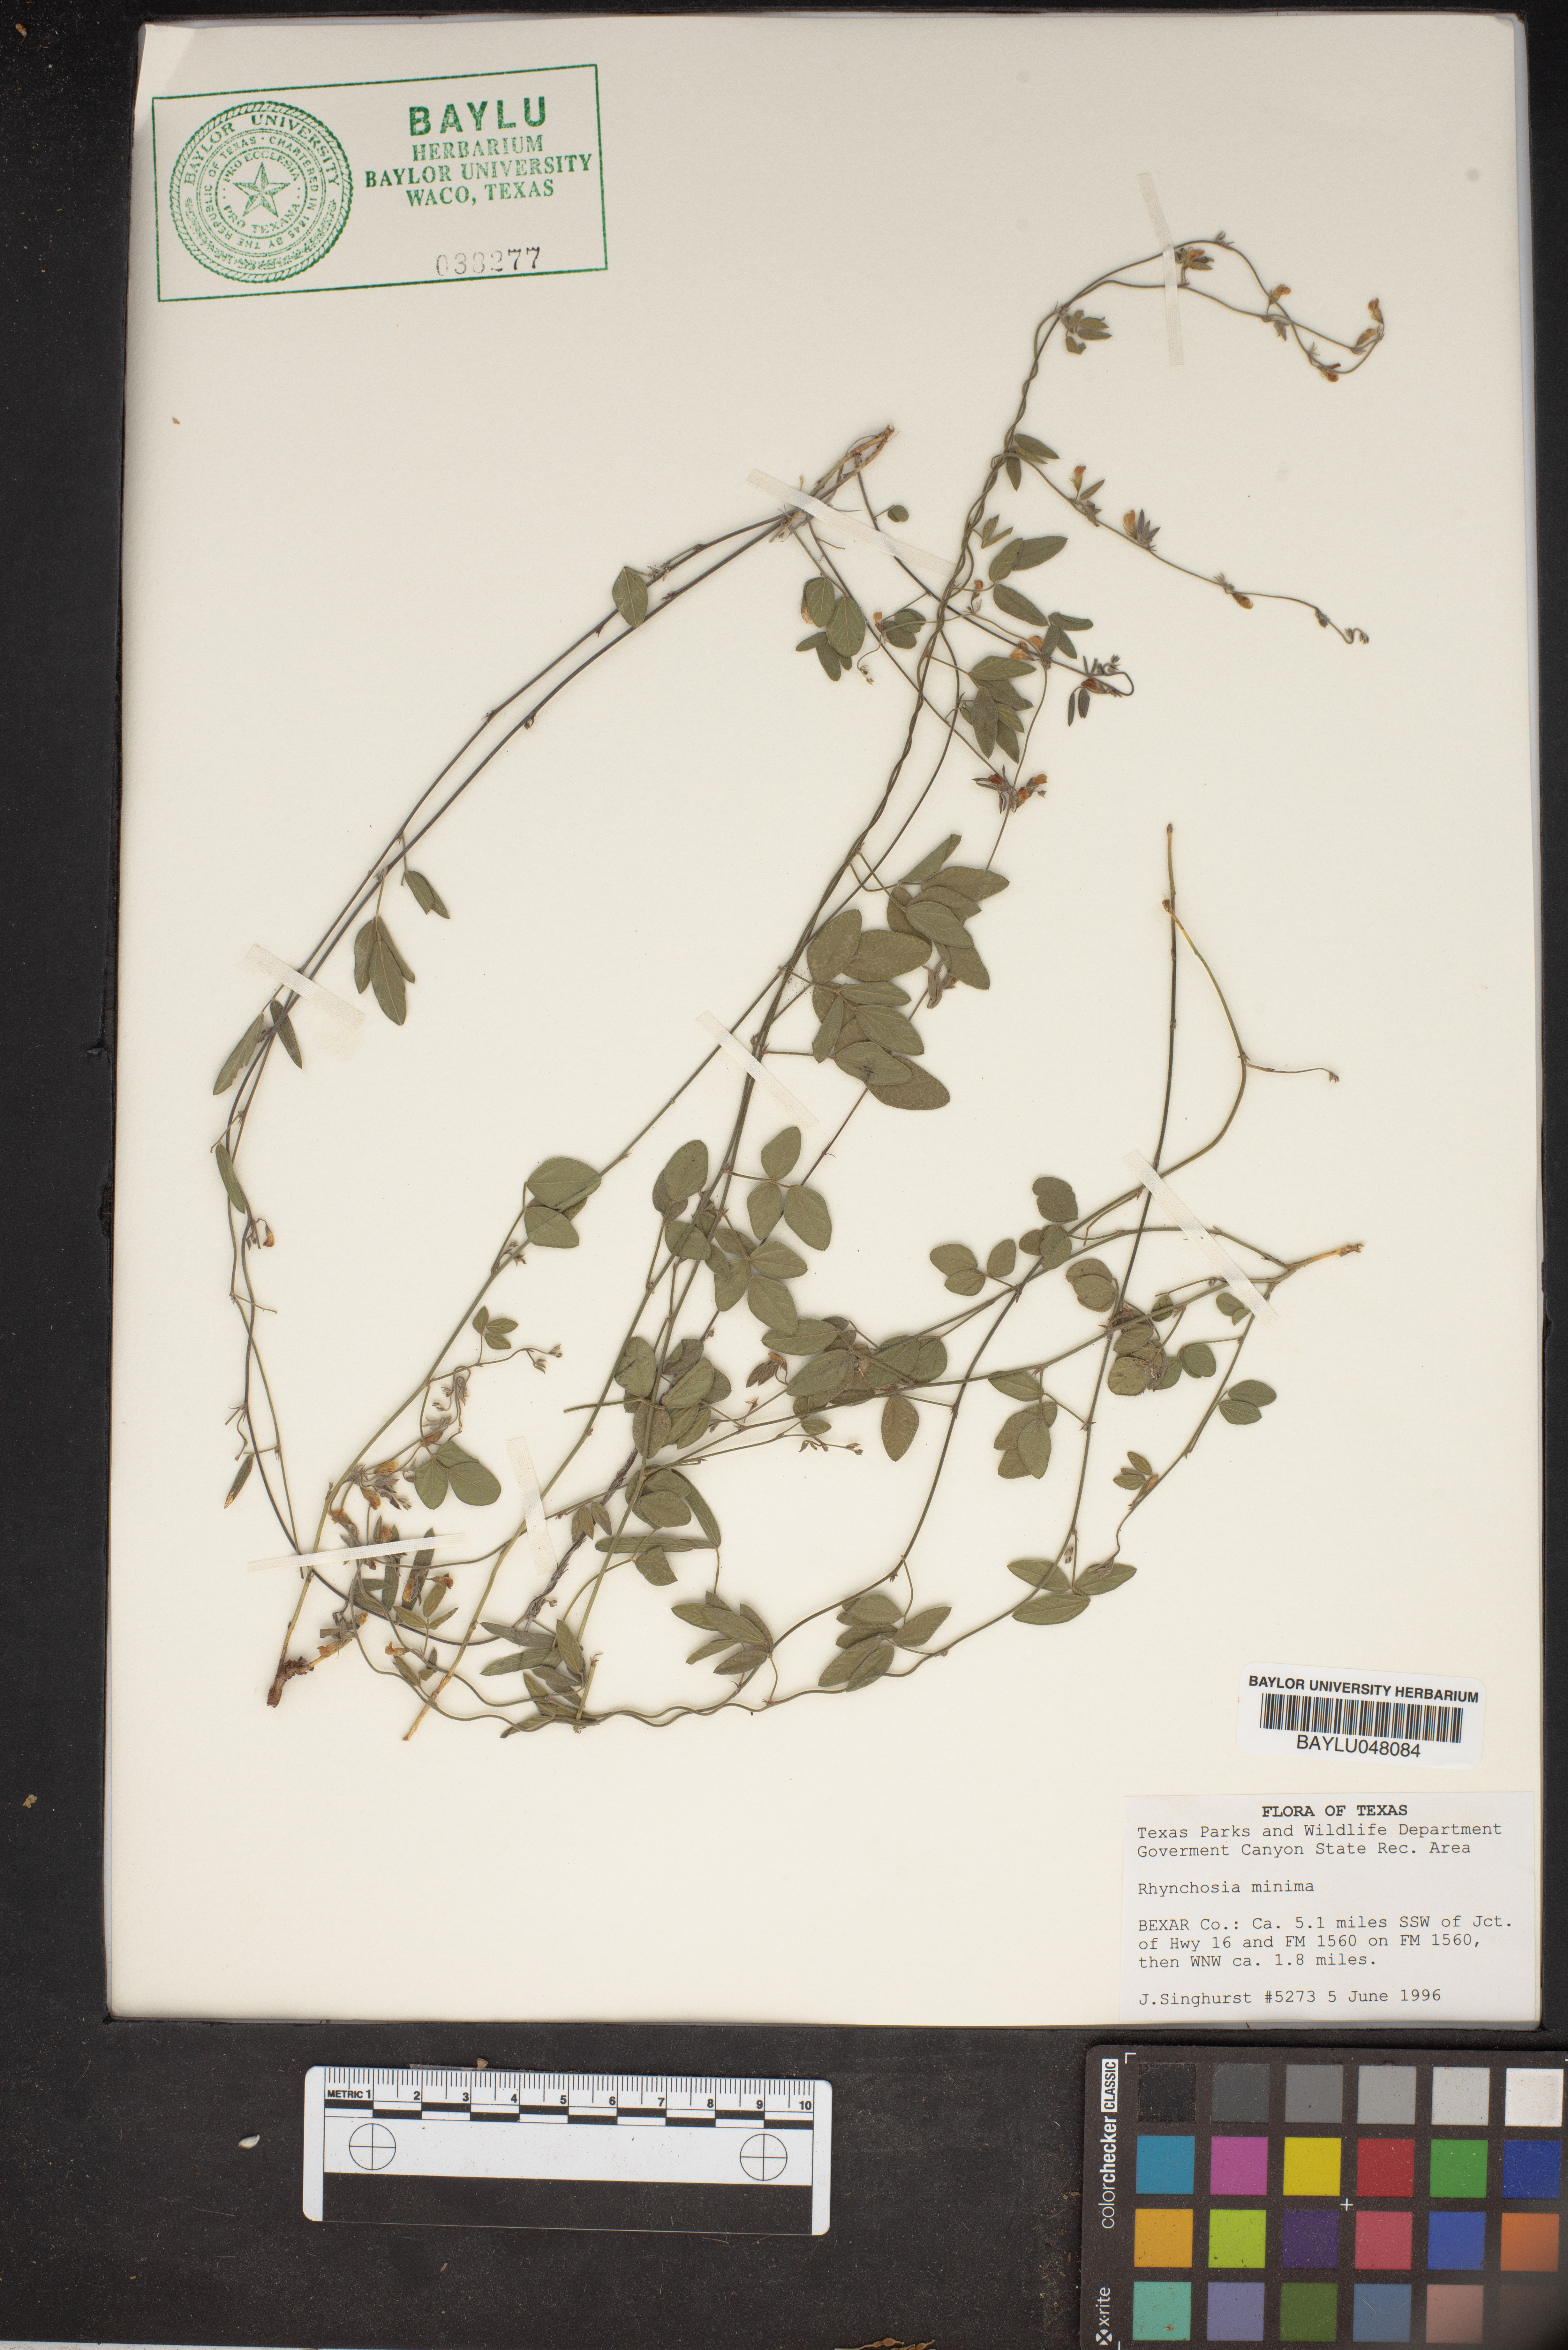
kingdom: Plantae
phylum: Tracheophyta
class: Magnoliopsida
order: Fabales
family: Fabaceae
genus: Rhynchosia
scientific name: Rhynchosia minima
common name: Least snoutbean
